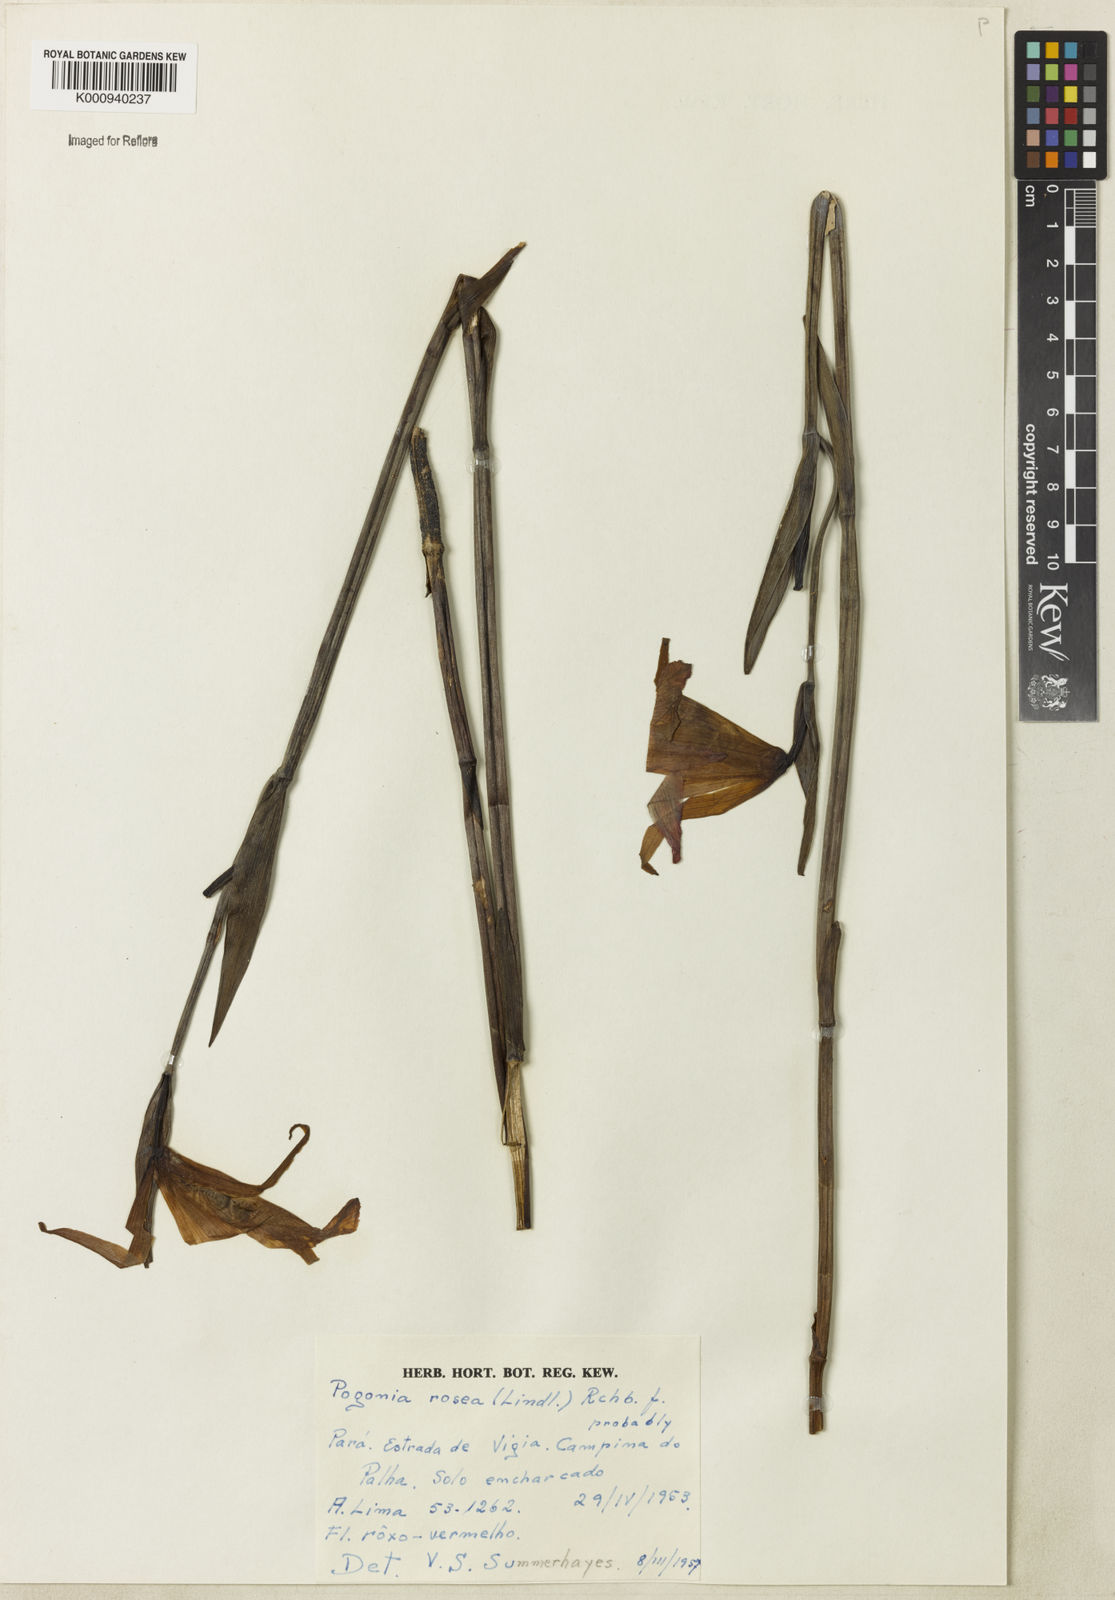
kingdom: Plantae
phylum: Tracheophyta
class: Liliopsida
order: Asparagales
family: Orchidaceae
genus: Cleistes
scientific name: Cleistes rosea
